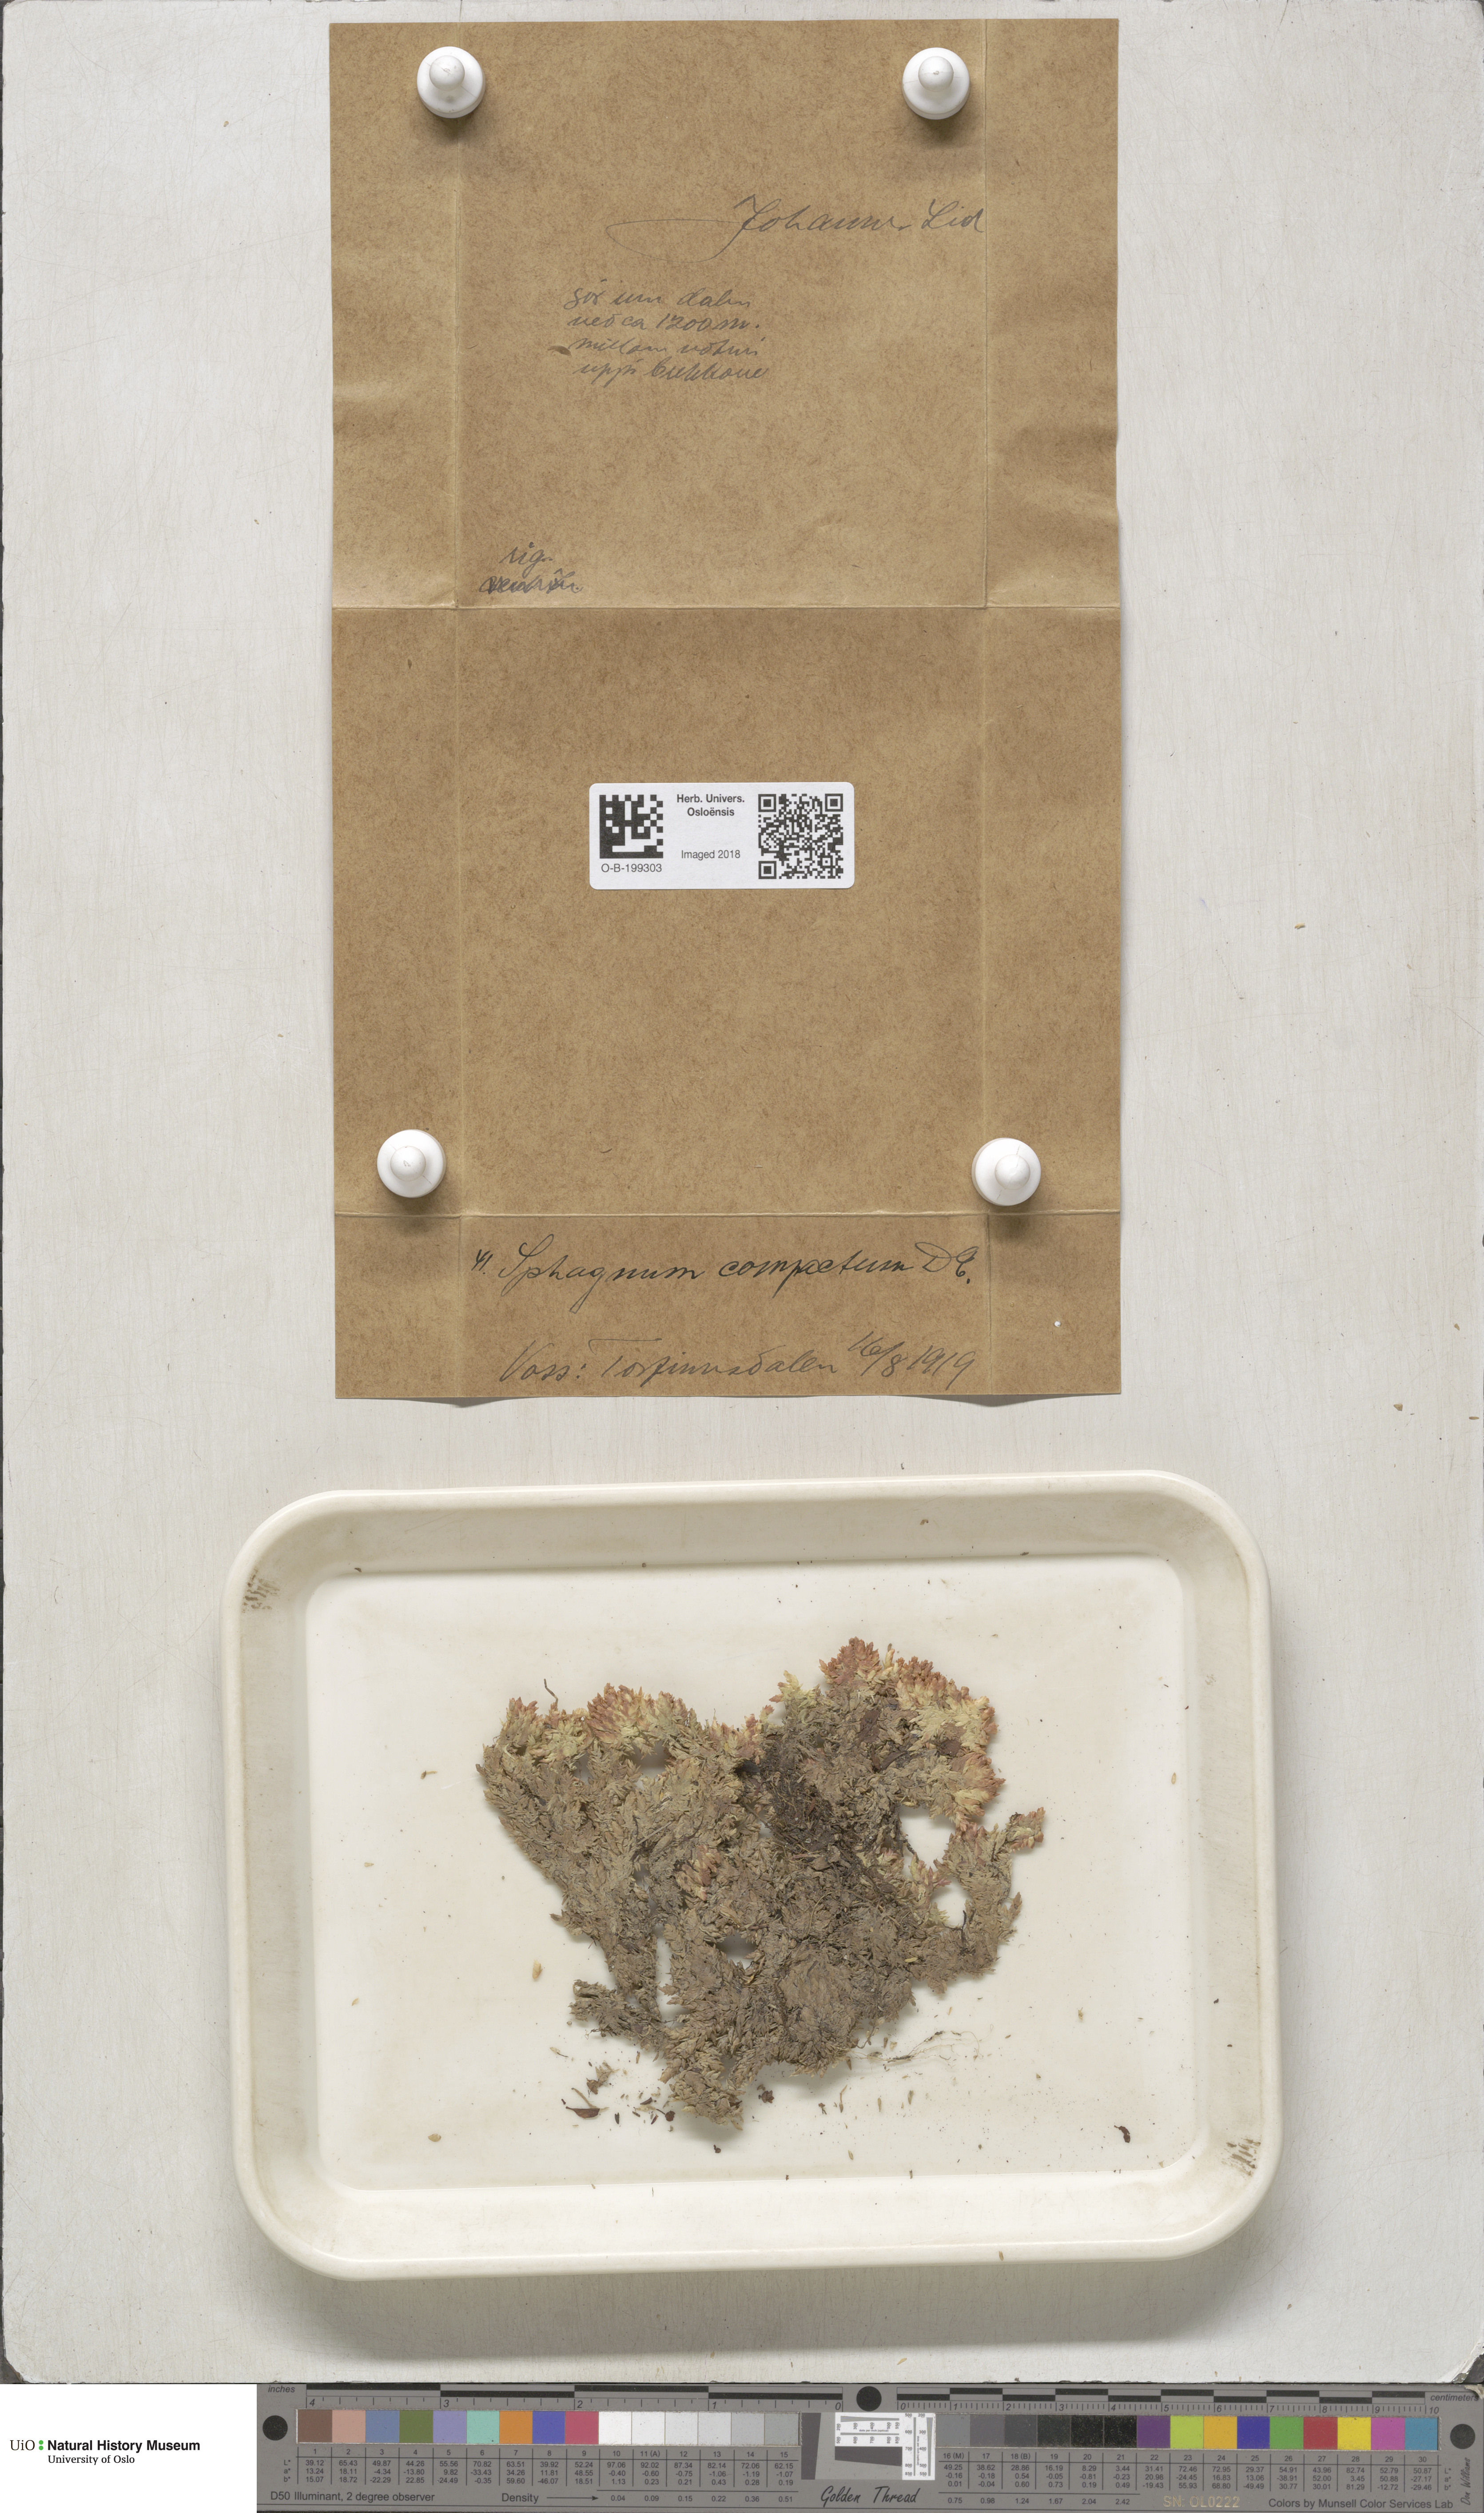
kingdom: Plantae
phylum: Bryophyta
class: Sphagnopsida
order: Sphagnales
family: Sphagnaceae
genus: Sphagnum
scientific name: Sphagnum compactum
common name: Compact peat moss
